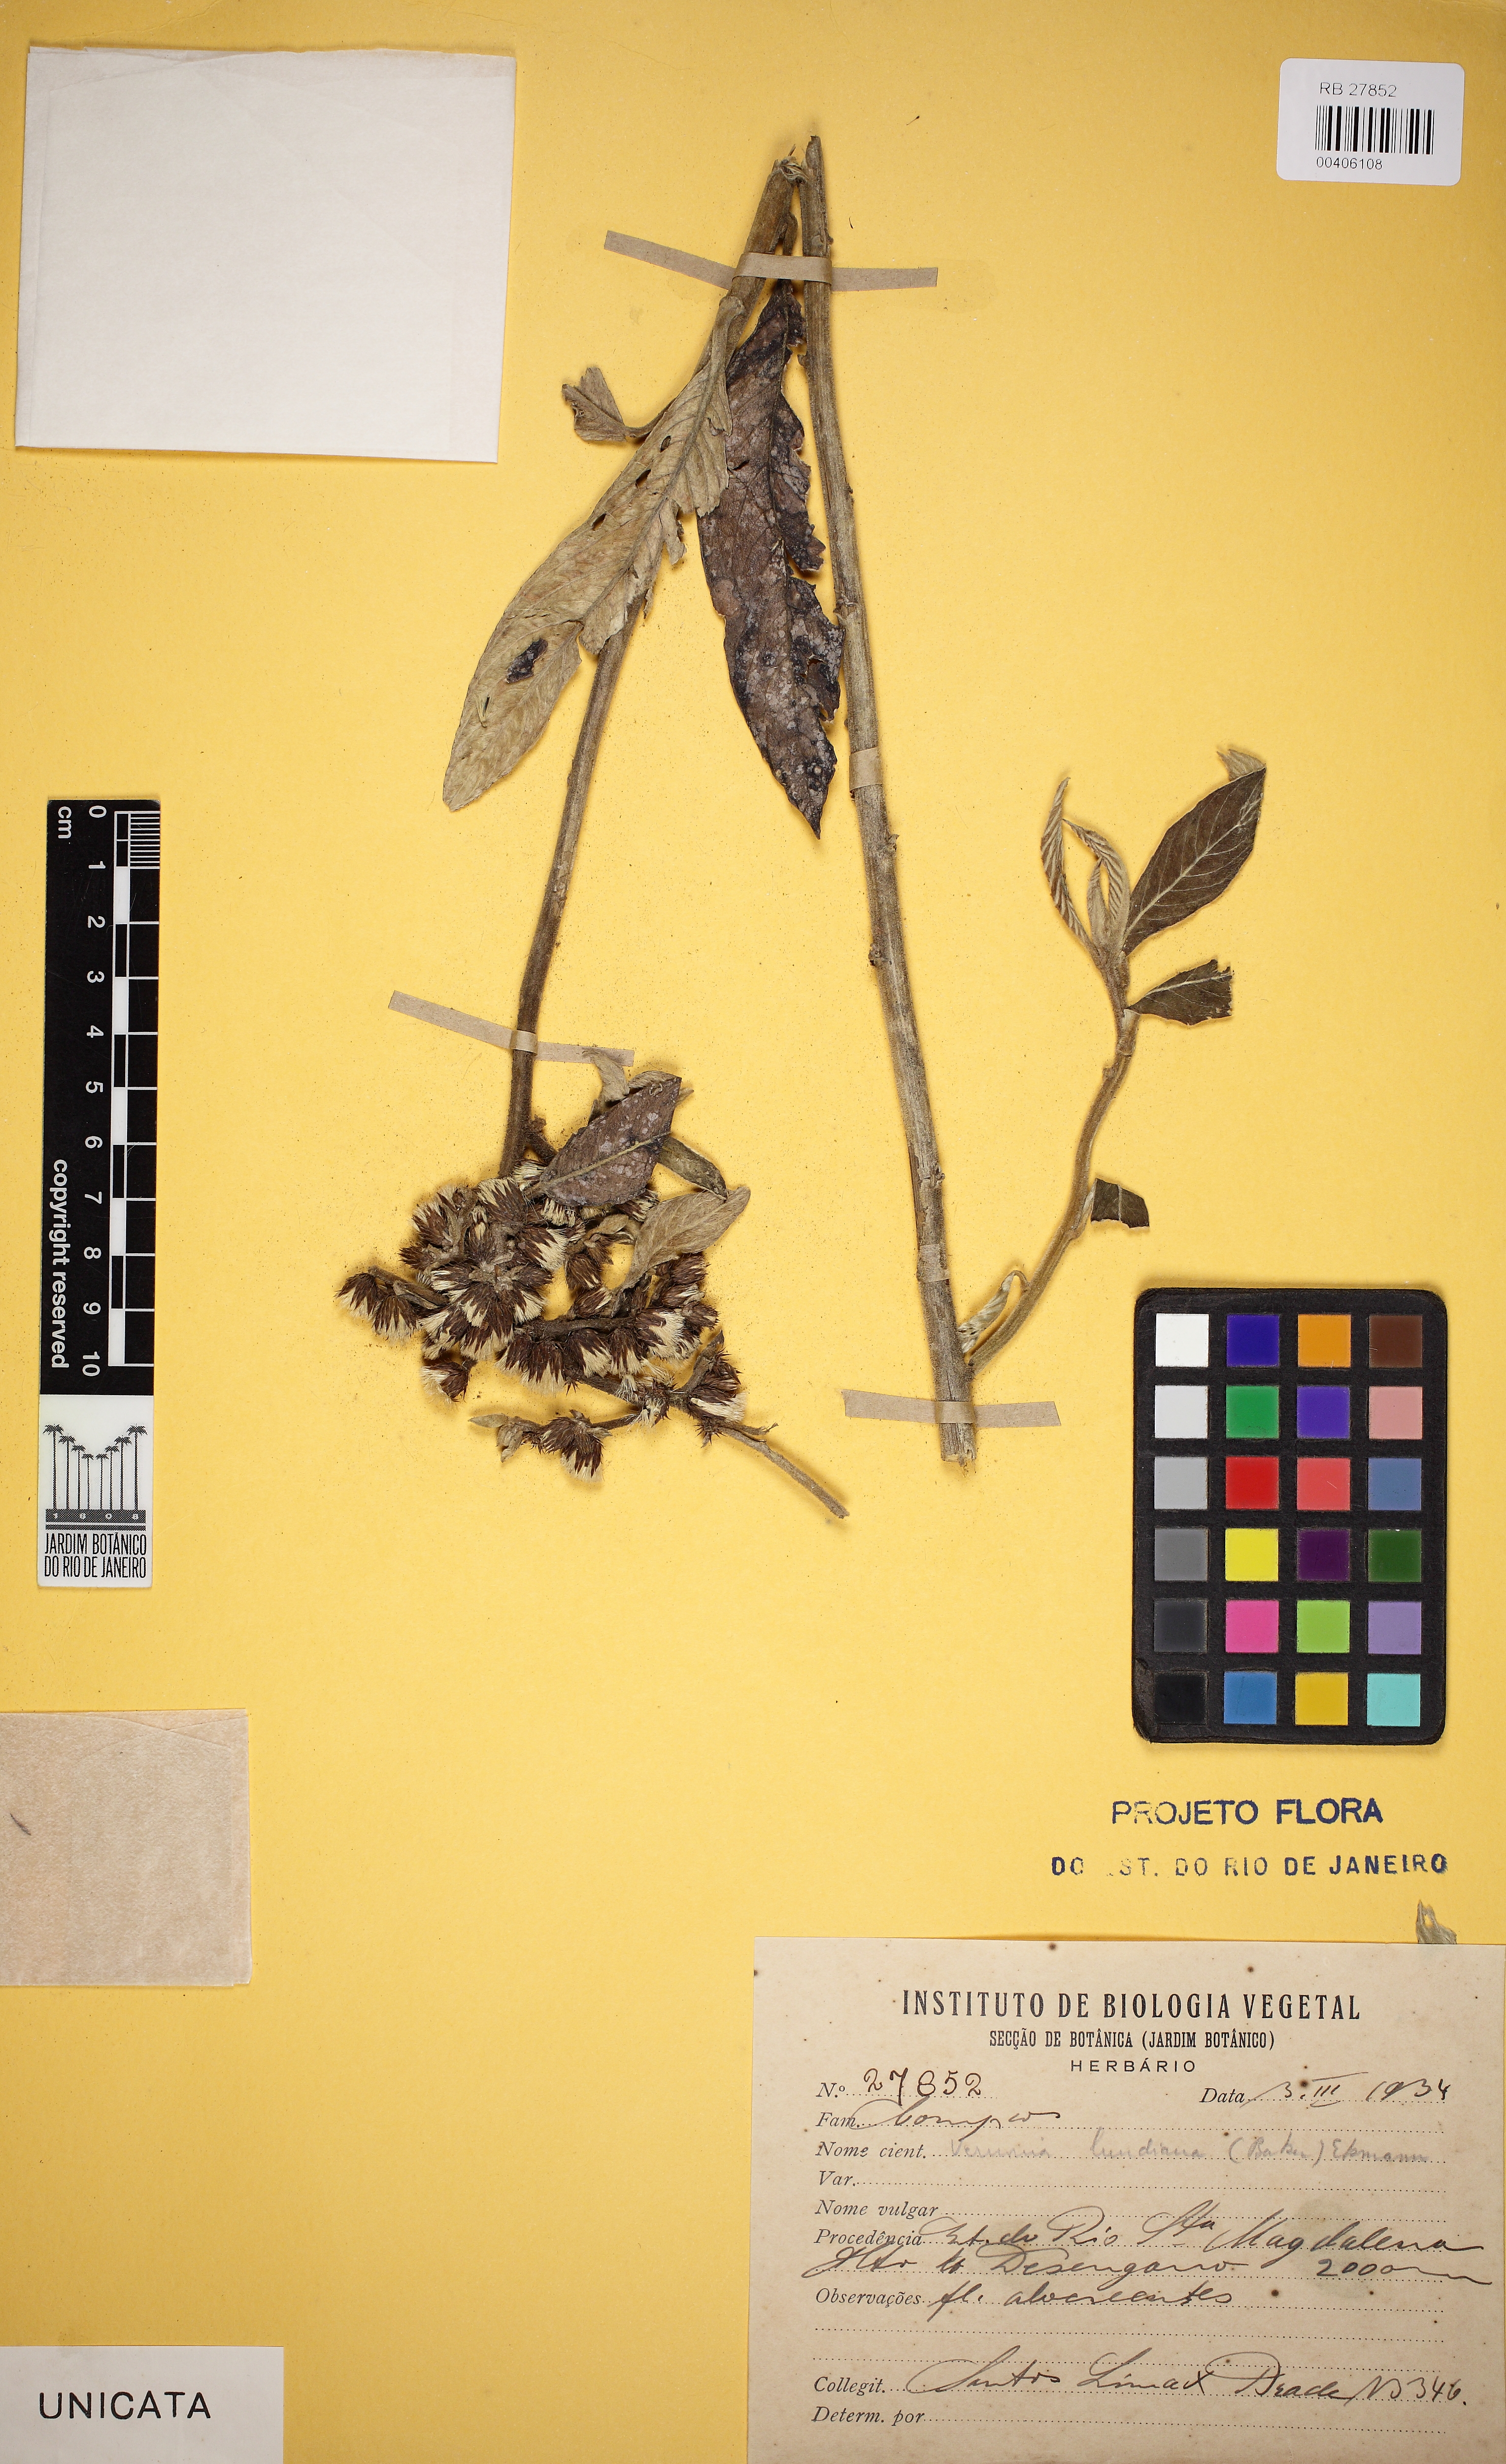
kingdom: Plantae
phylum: Tracheophyta
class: Magnoliopsida
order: Asterales
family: Asteraceae
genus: Piptocarpha
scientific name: Piptocarpha lundiana
